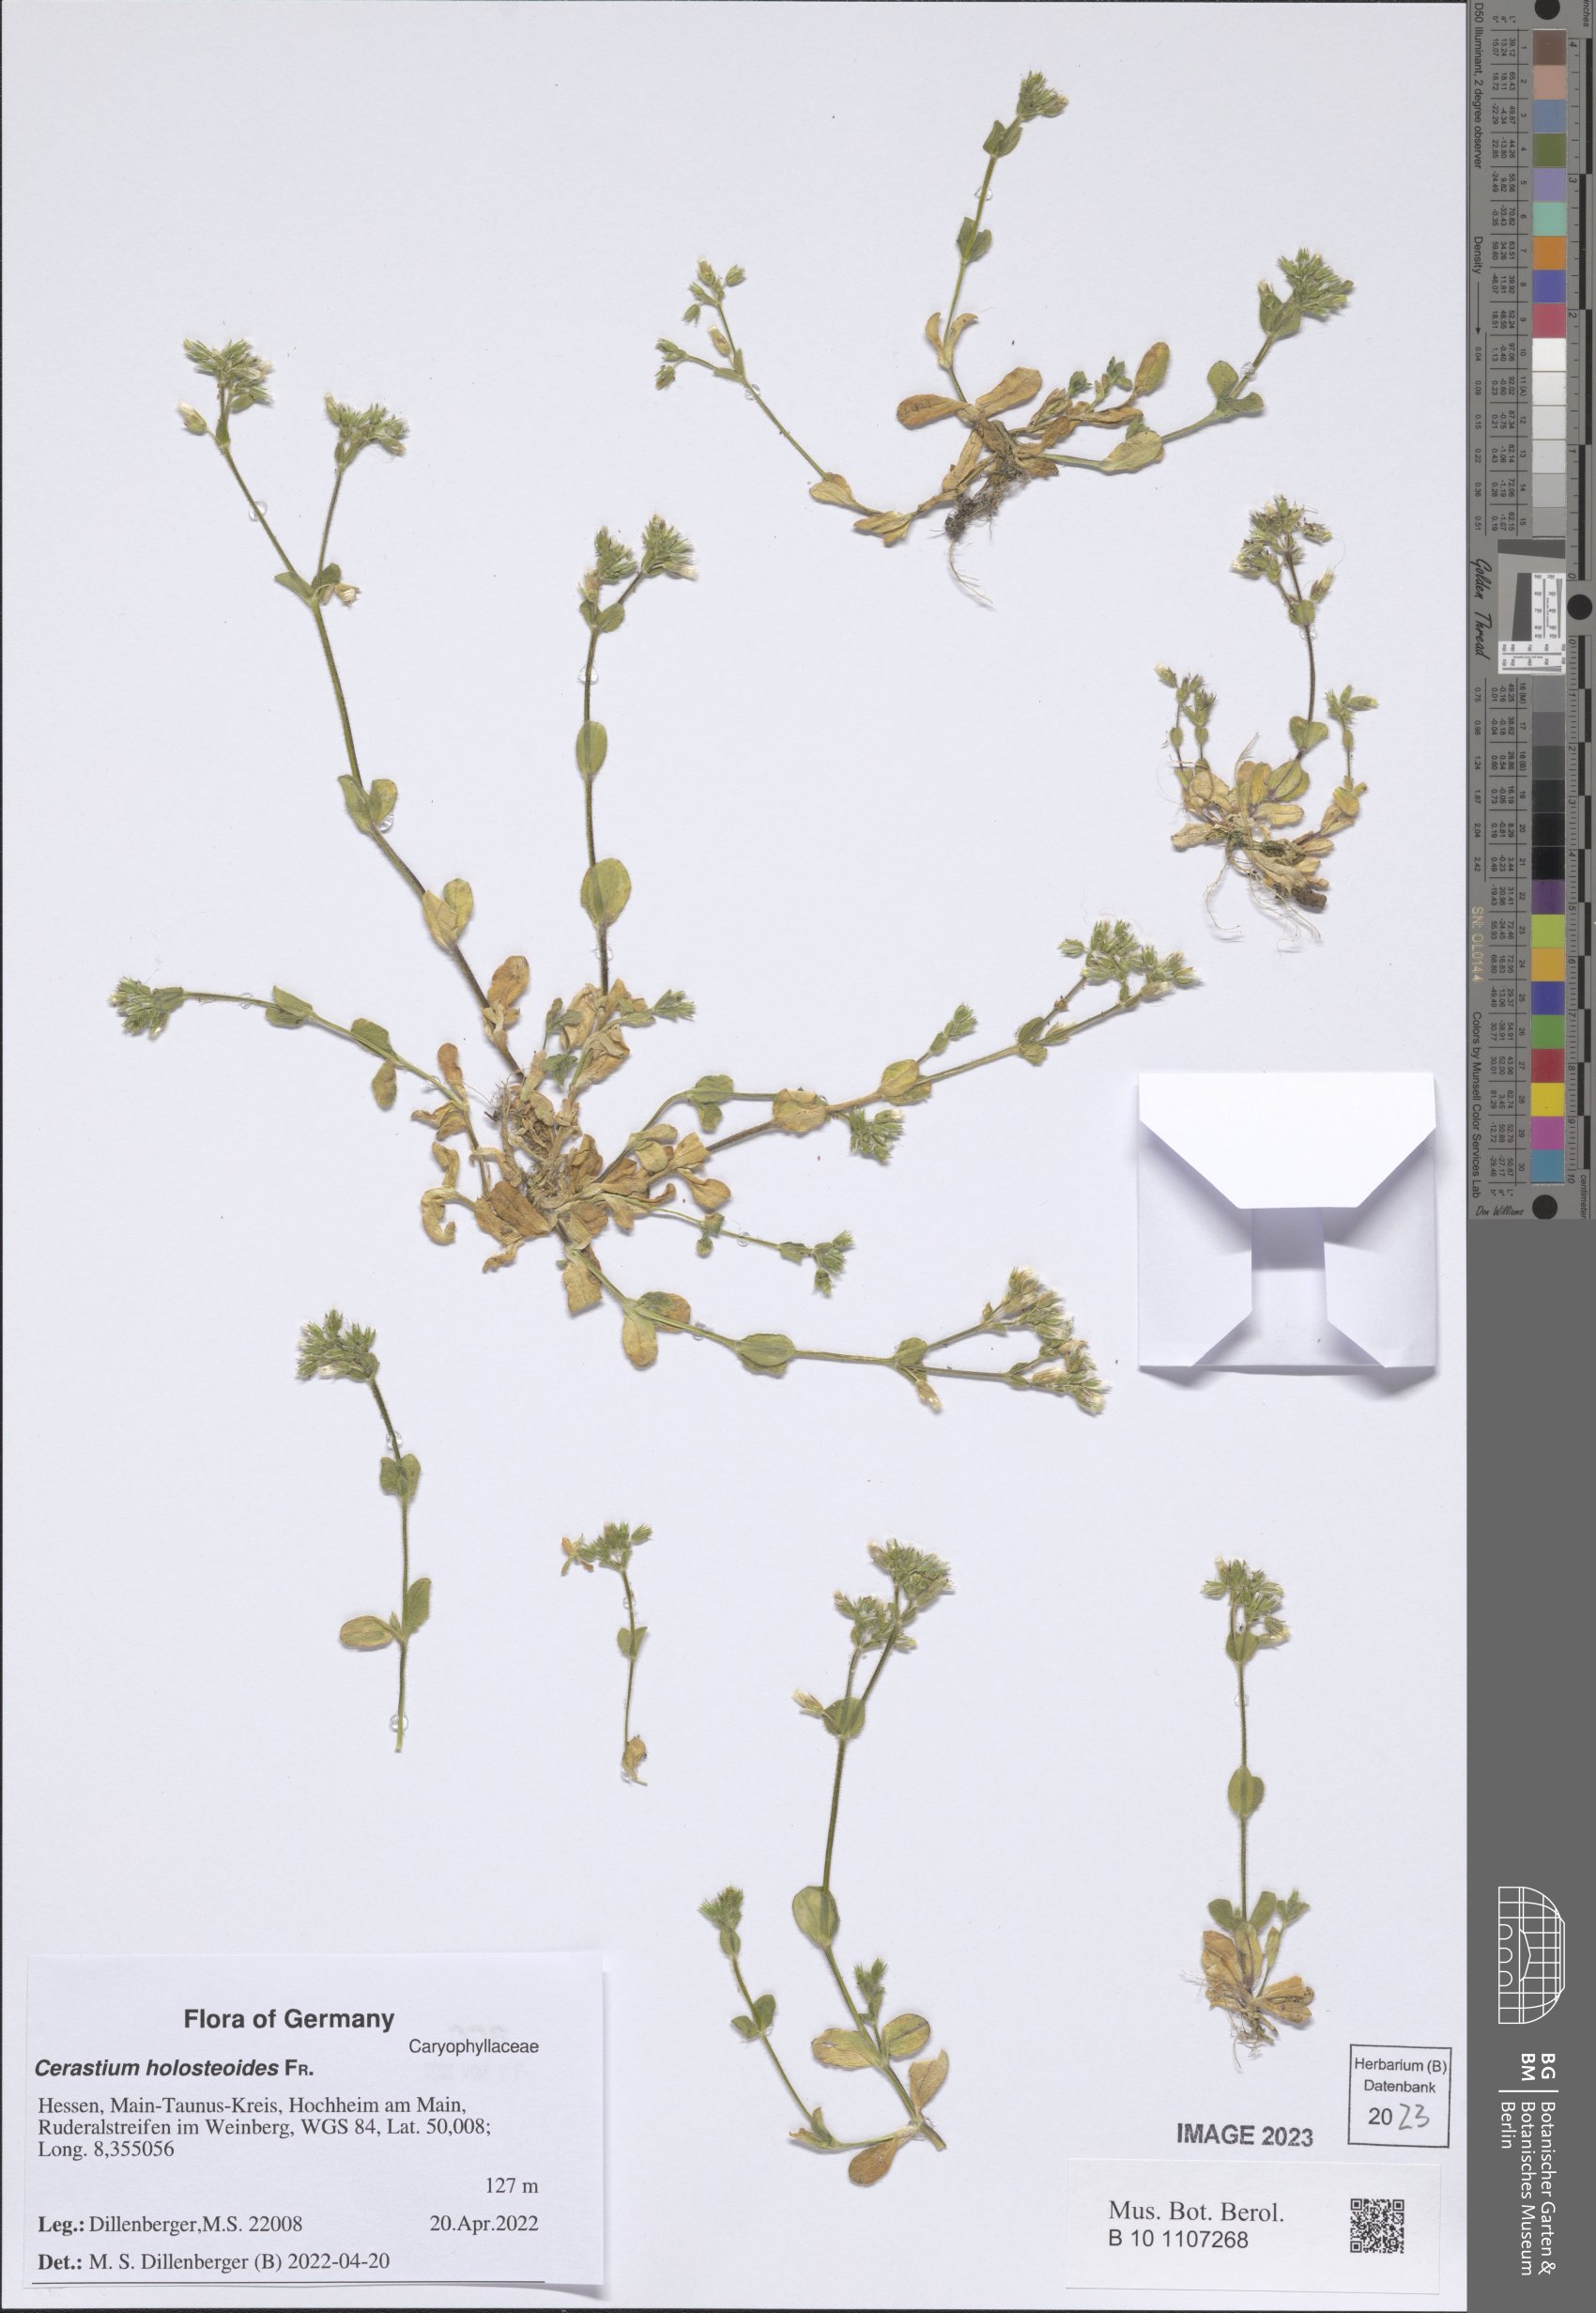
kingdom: Plantae
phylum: Tracheophyta
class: Magnoliopsida
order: Caryophyllales
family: Caryophyllaceae
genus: Cerastium
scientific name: Cerastium holosteoides
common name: Big chickweed
